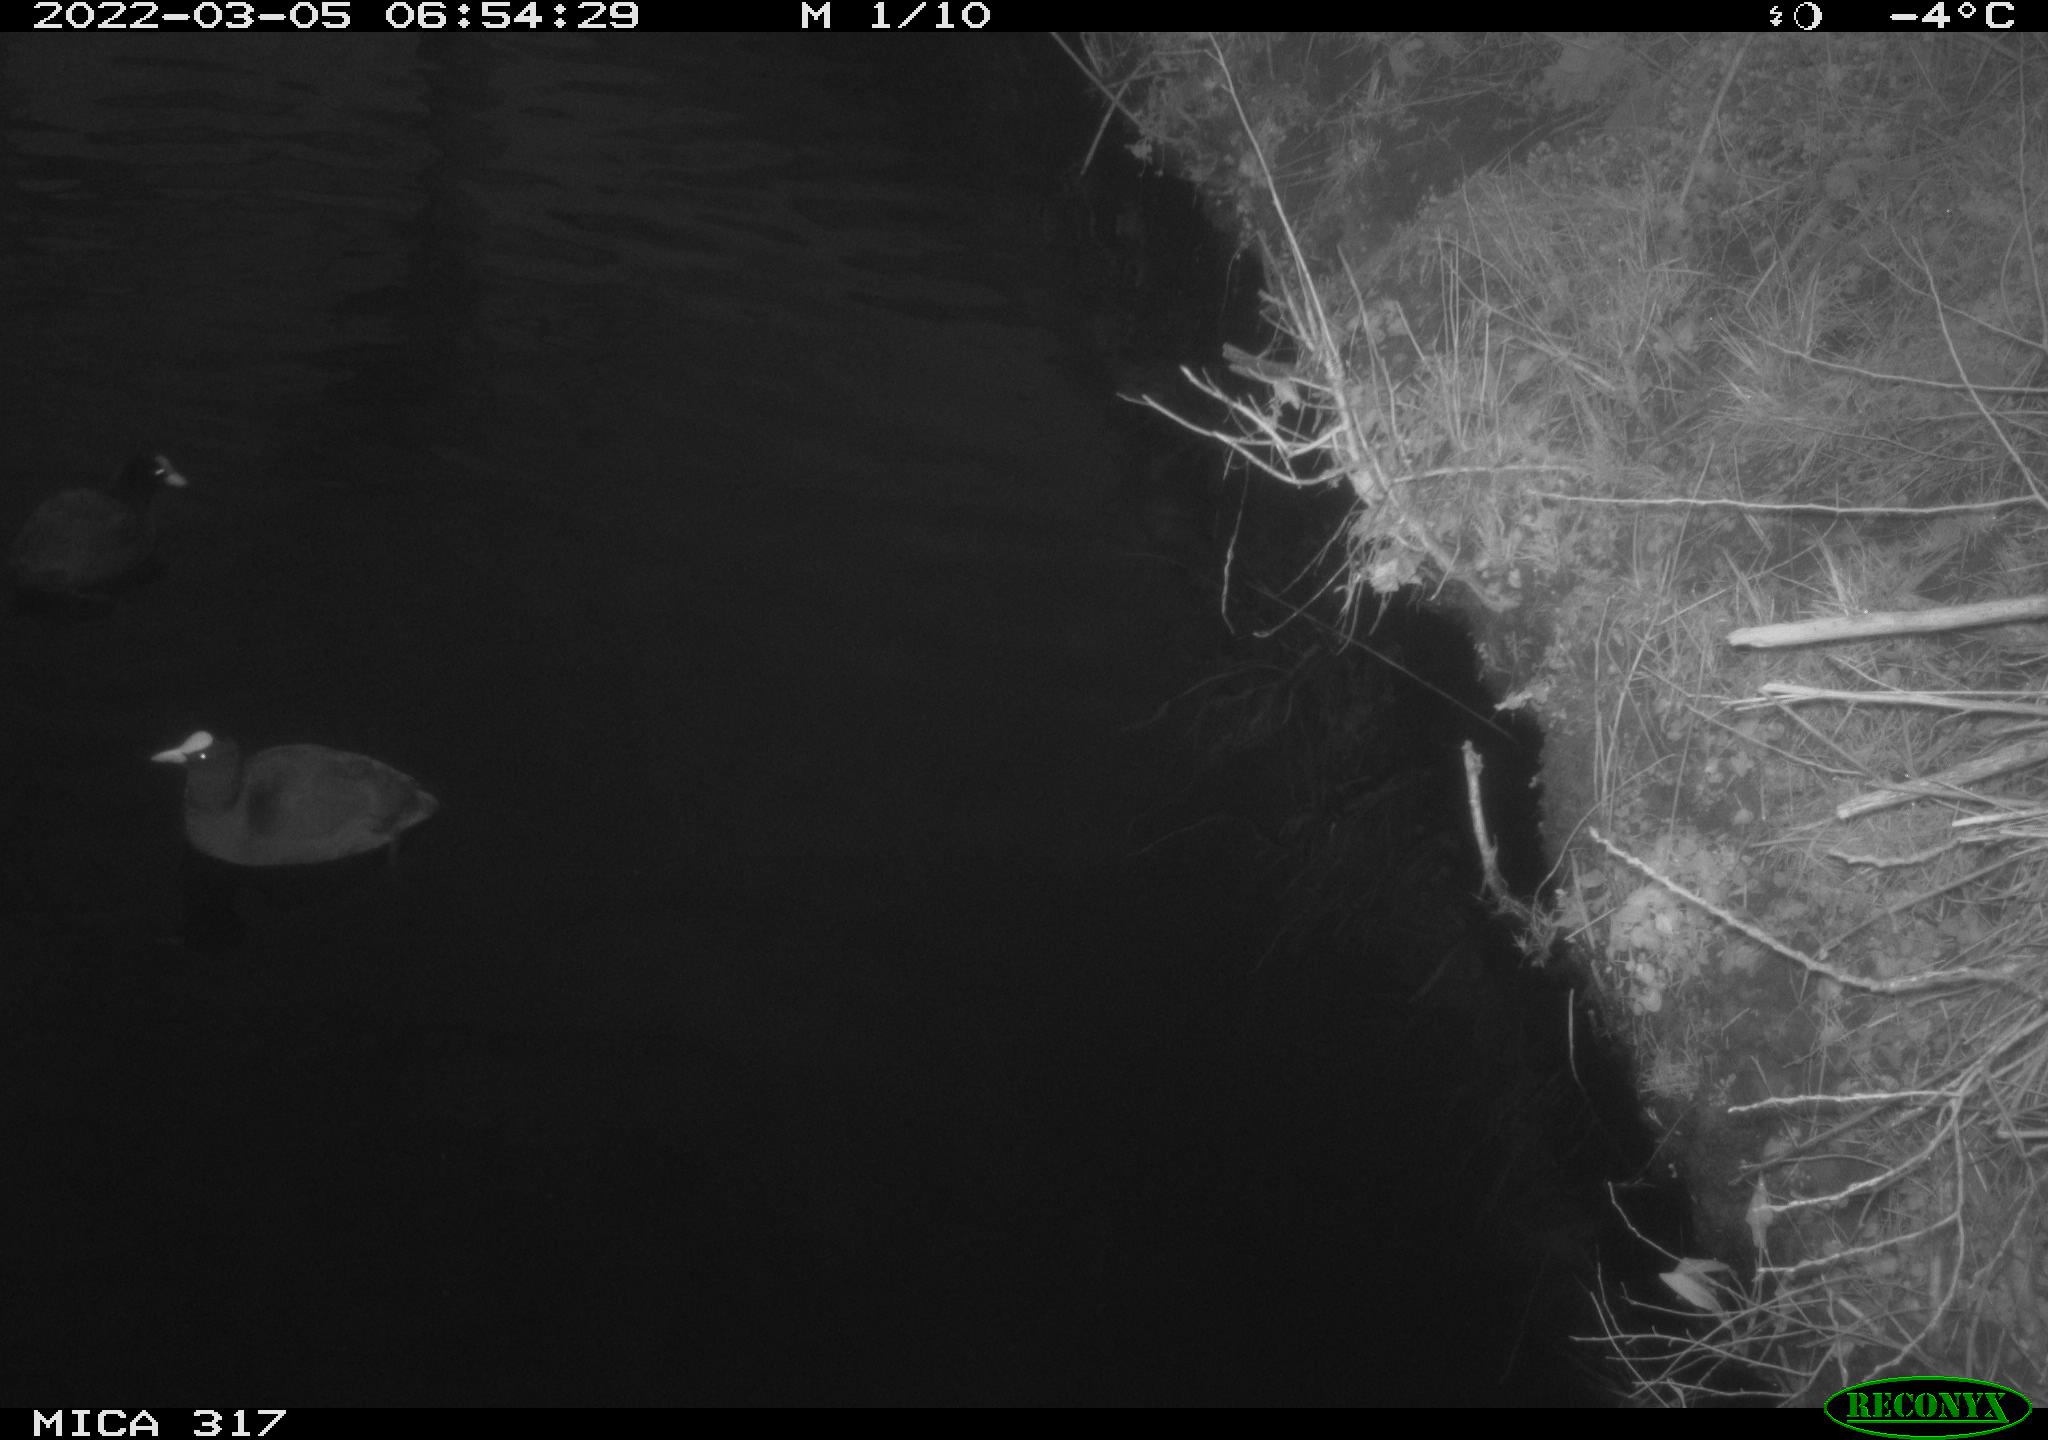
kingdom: Animalia
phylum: Chordata
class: Aves
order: Gruiformes
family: Rallidae
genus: Fulica
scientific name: Fulica atra
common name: Eurasian coot
